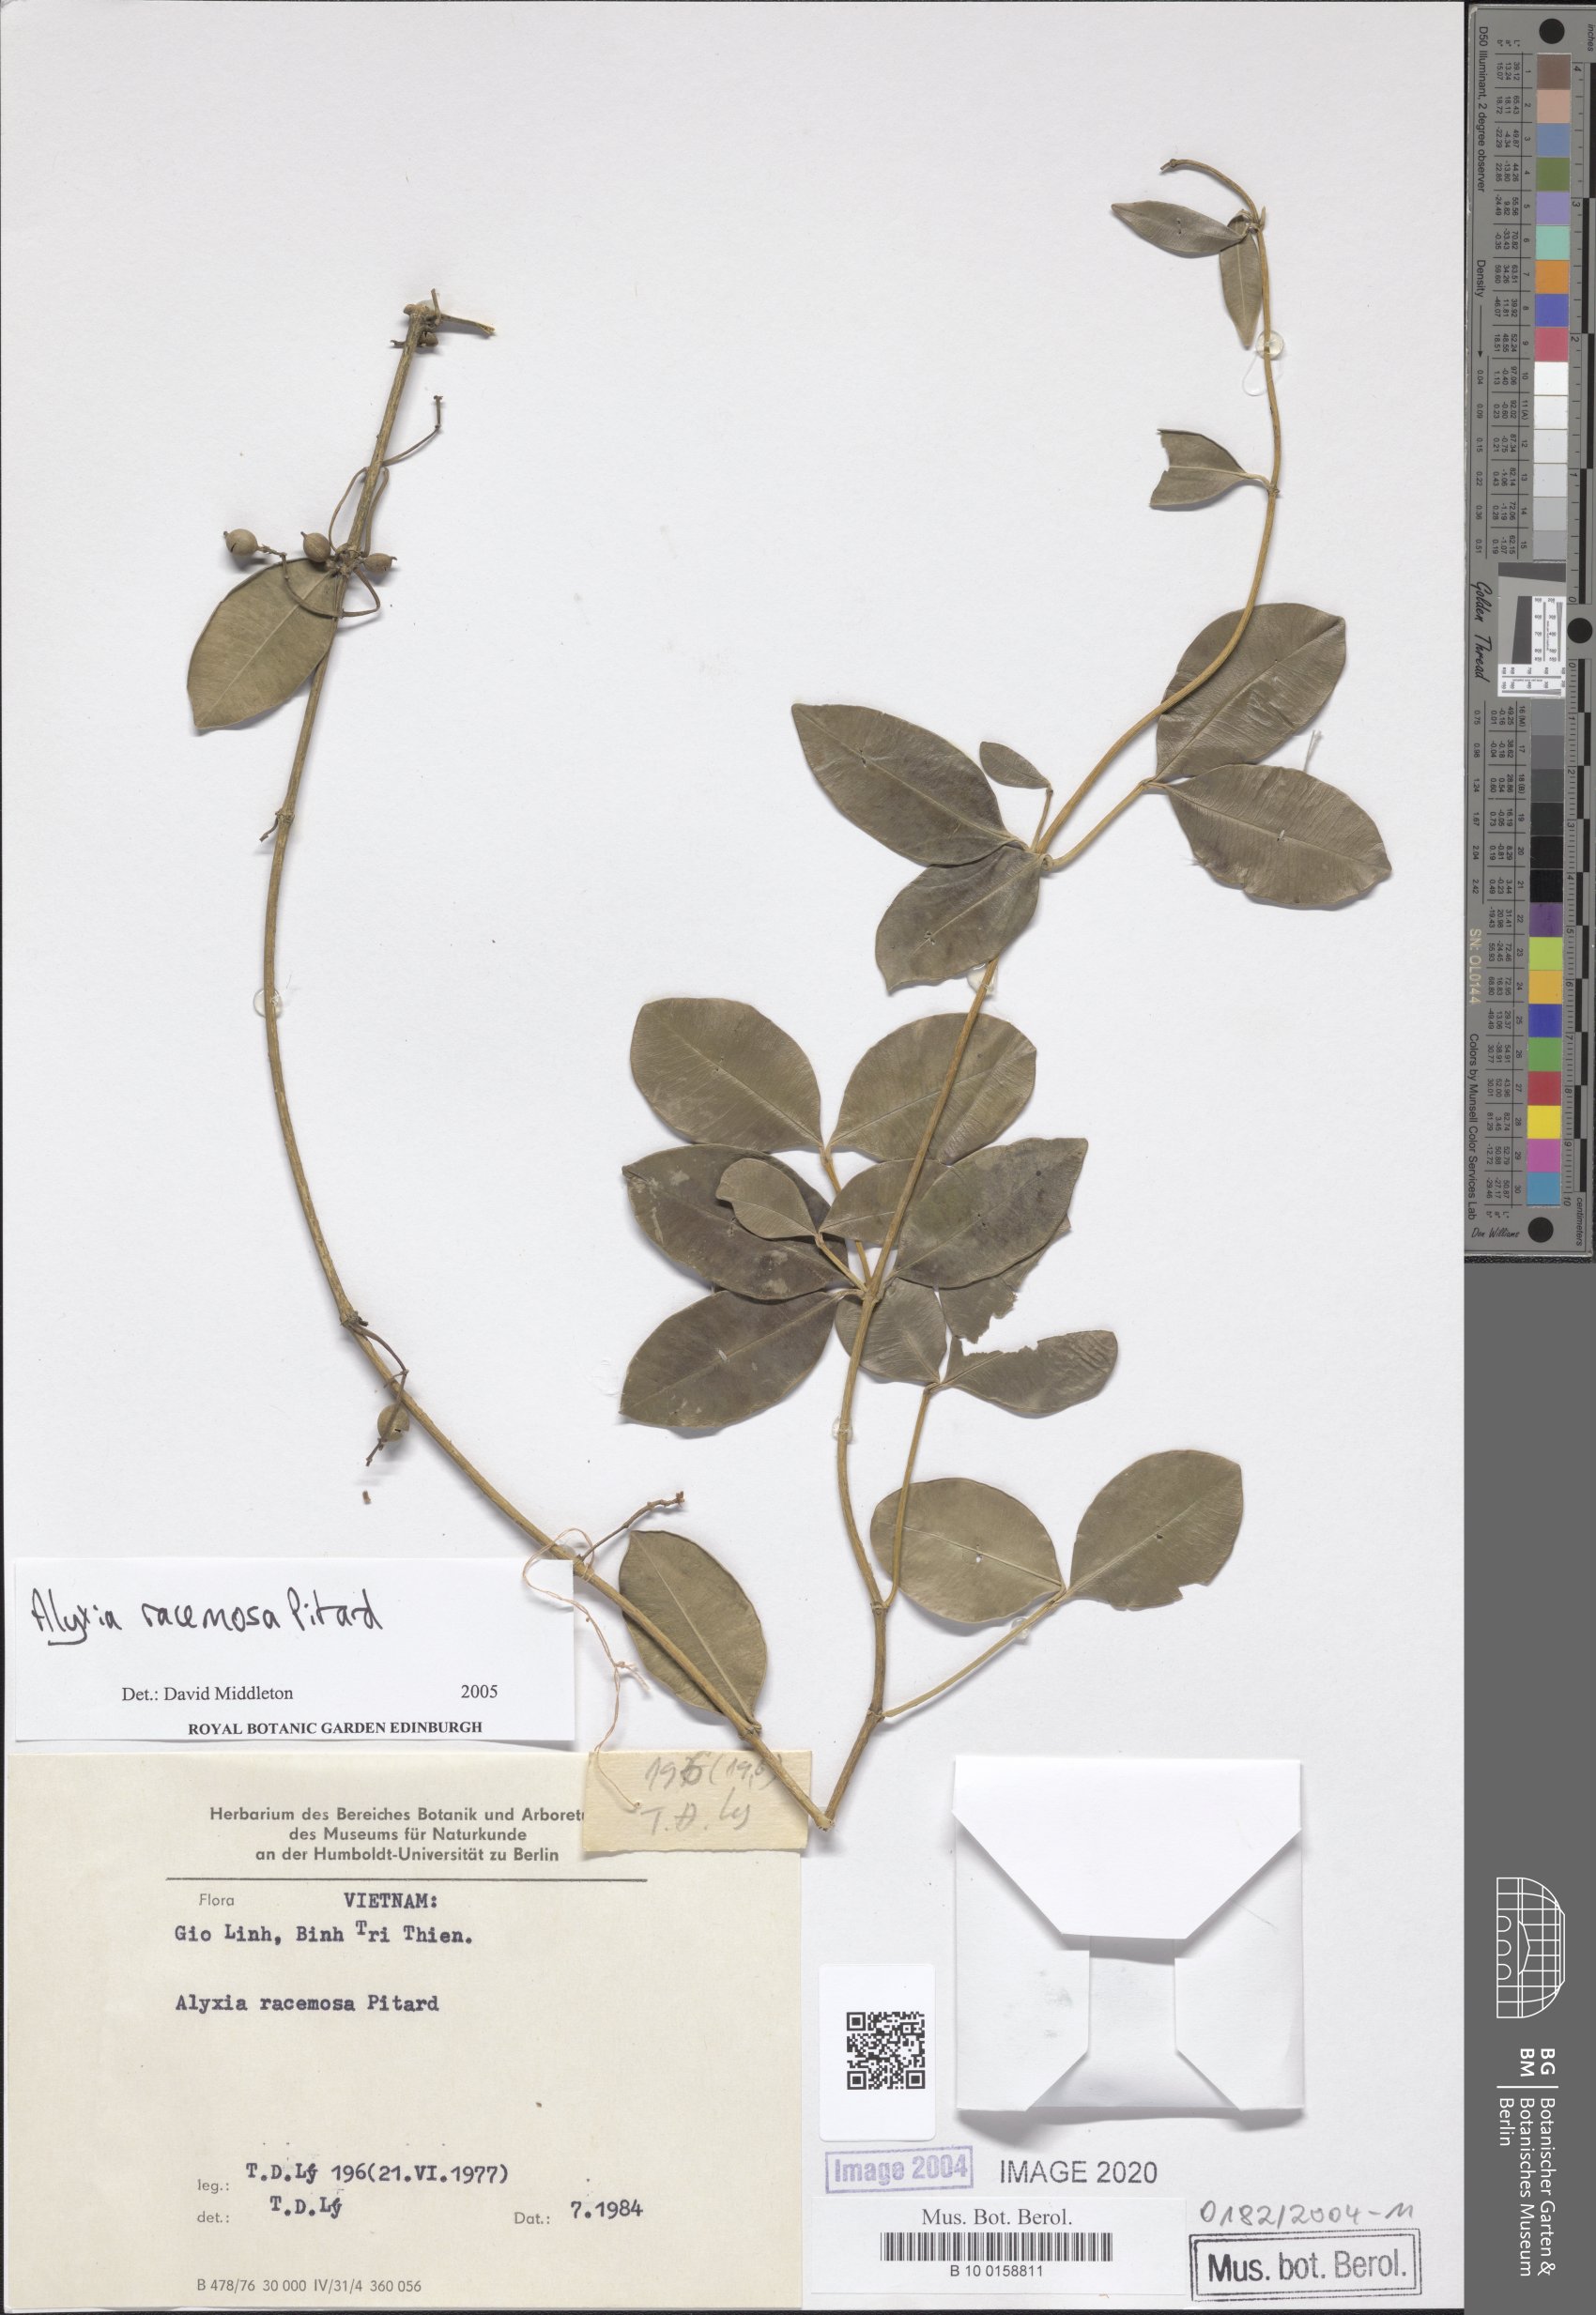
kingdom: Plantae
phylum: Tracheophyta
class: Magnoliopsida
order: Gentianales
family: Apocynaceae
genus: Alyxia
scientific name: Alyxia racemosa
